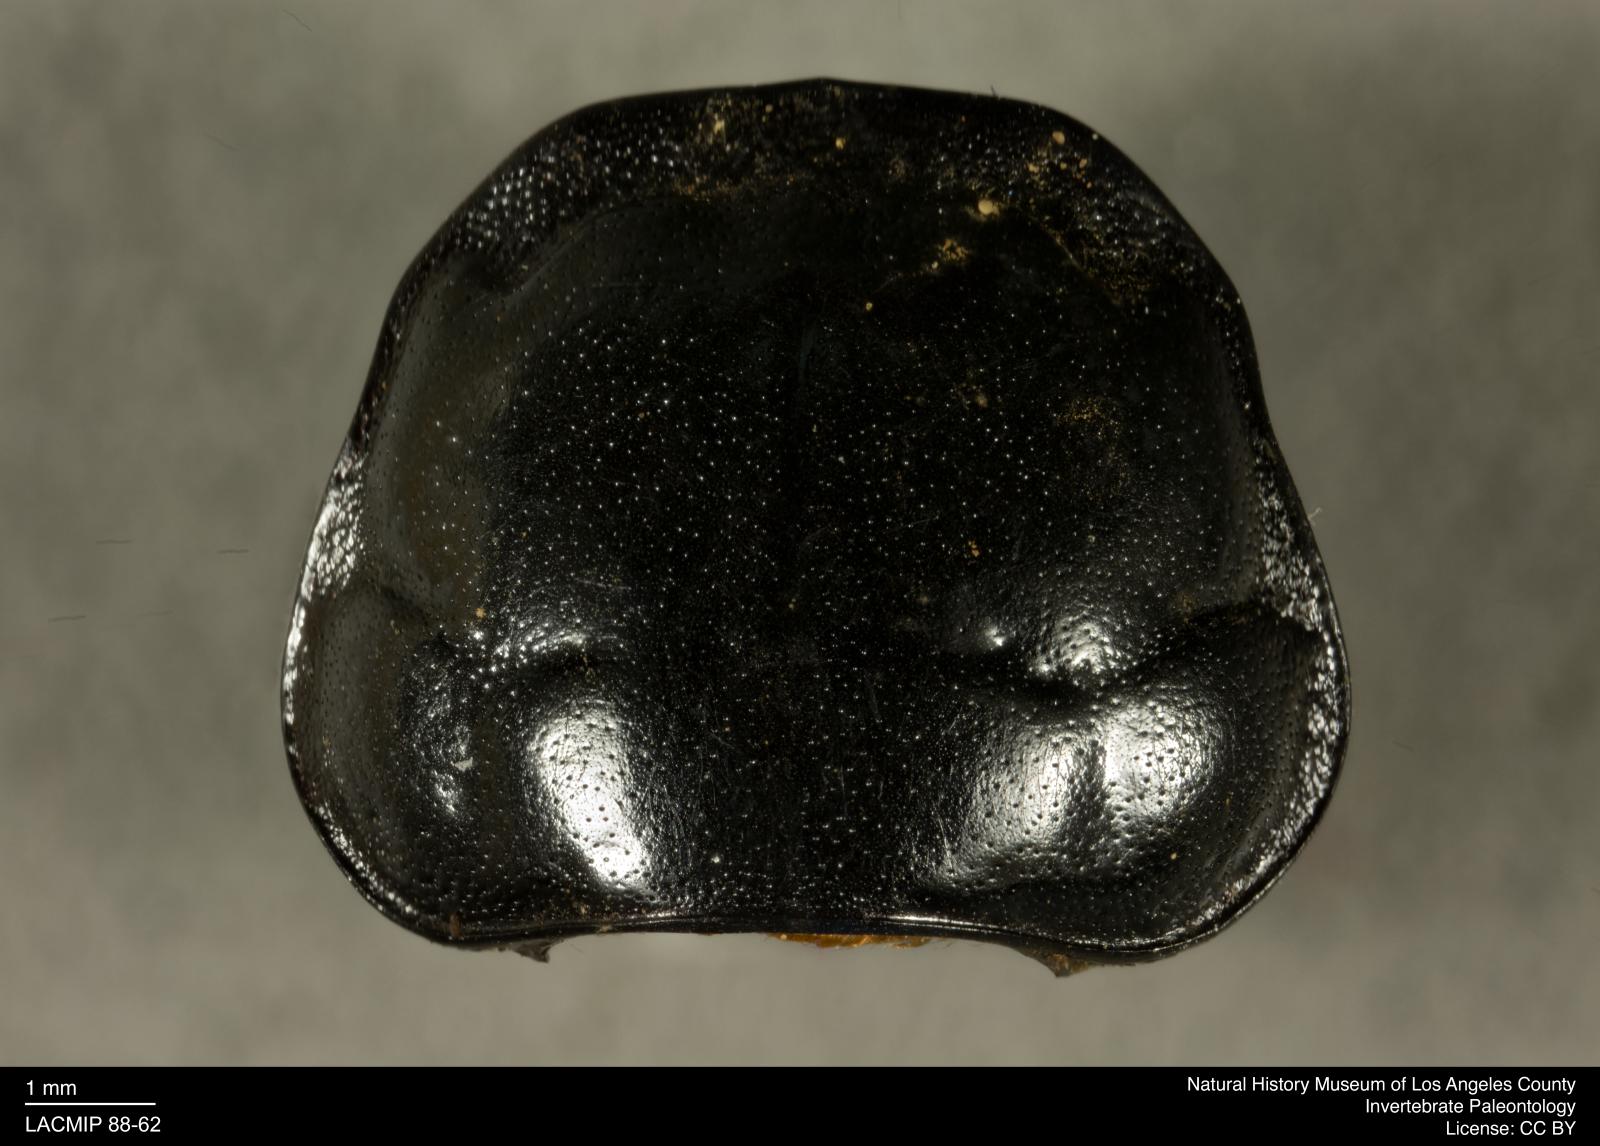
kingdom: Animalia
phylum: Arthropoda
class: Insecta
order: Coleoptera
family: Staphylinidae
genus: Nicrophorus
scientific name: Nicrophorus marginatus
